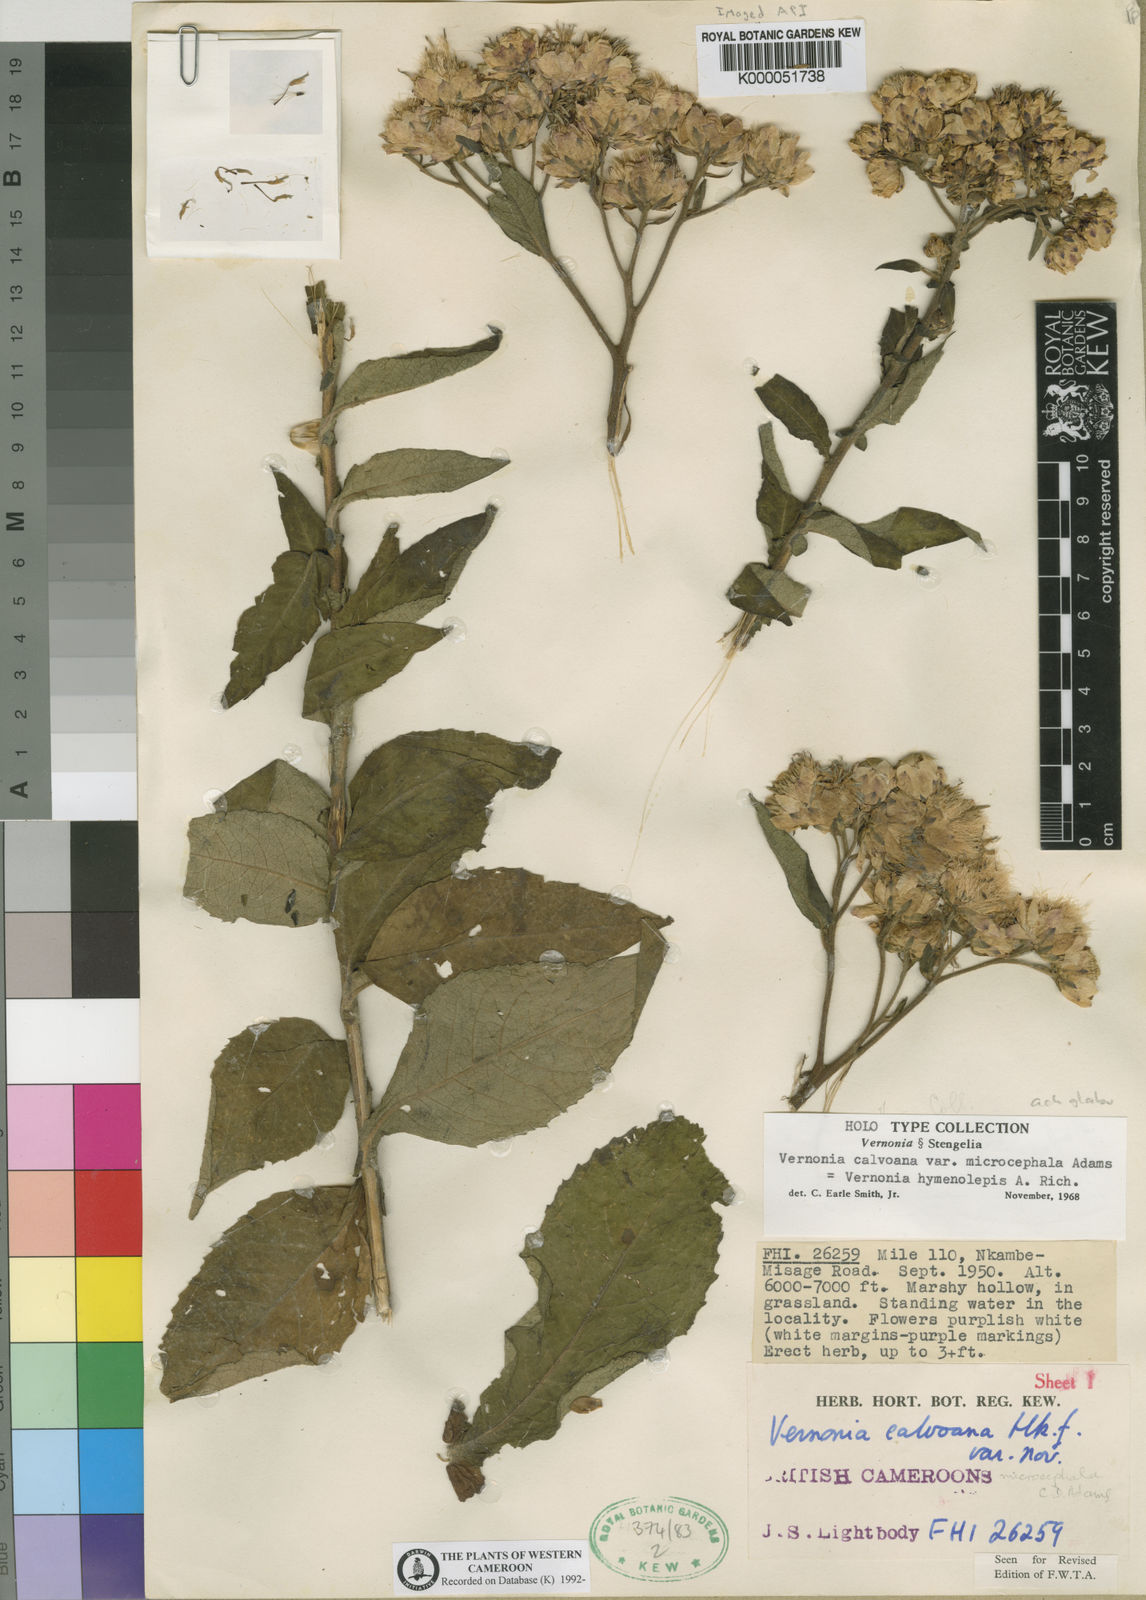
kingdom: Plantae
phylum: Tracheophyta
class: Magnoliopsida
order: Asterales
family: Asteraceae
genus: Baccharoides
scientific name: Baccharoides hymenolepis
